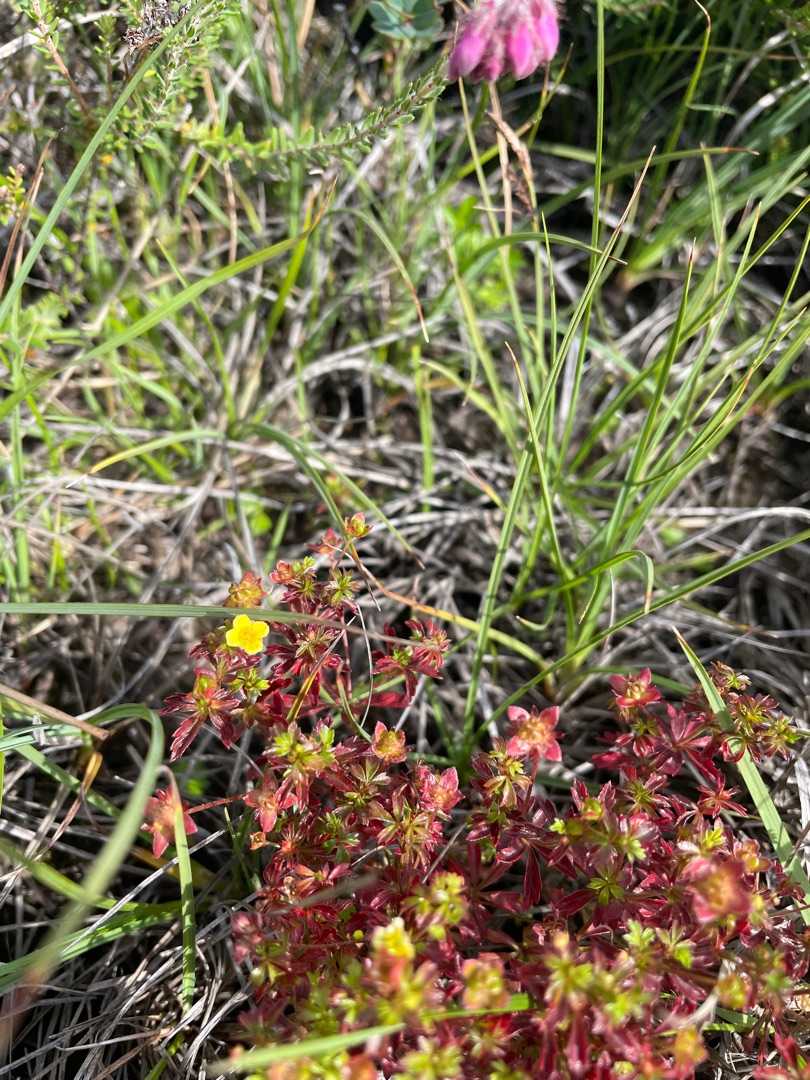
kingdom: Plantae
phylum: Tracheophyta
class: Magnoliopsida
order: Rosales
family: Rosaceae
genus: Potentilla
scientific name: Potentilla erecta
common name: Tormentil
